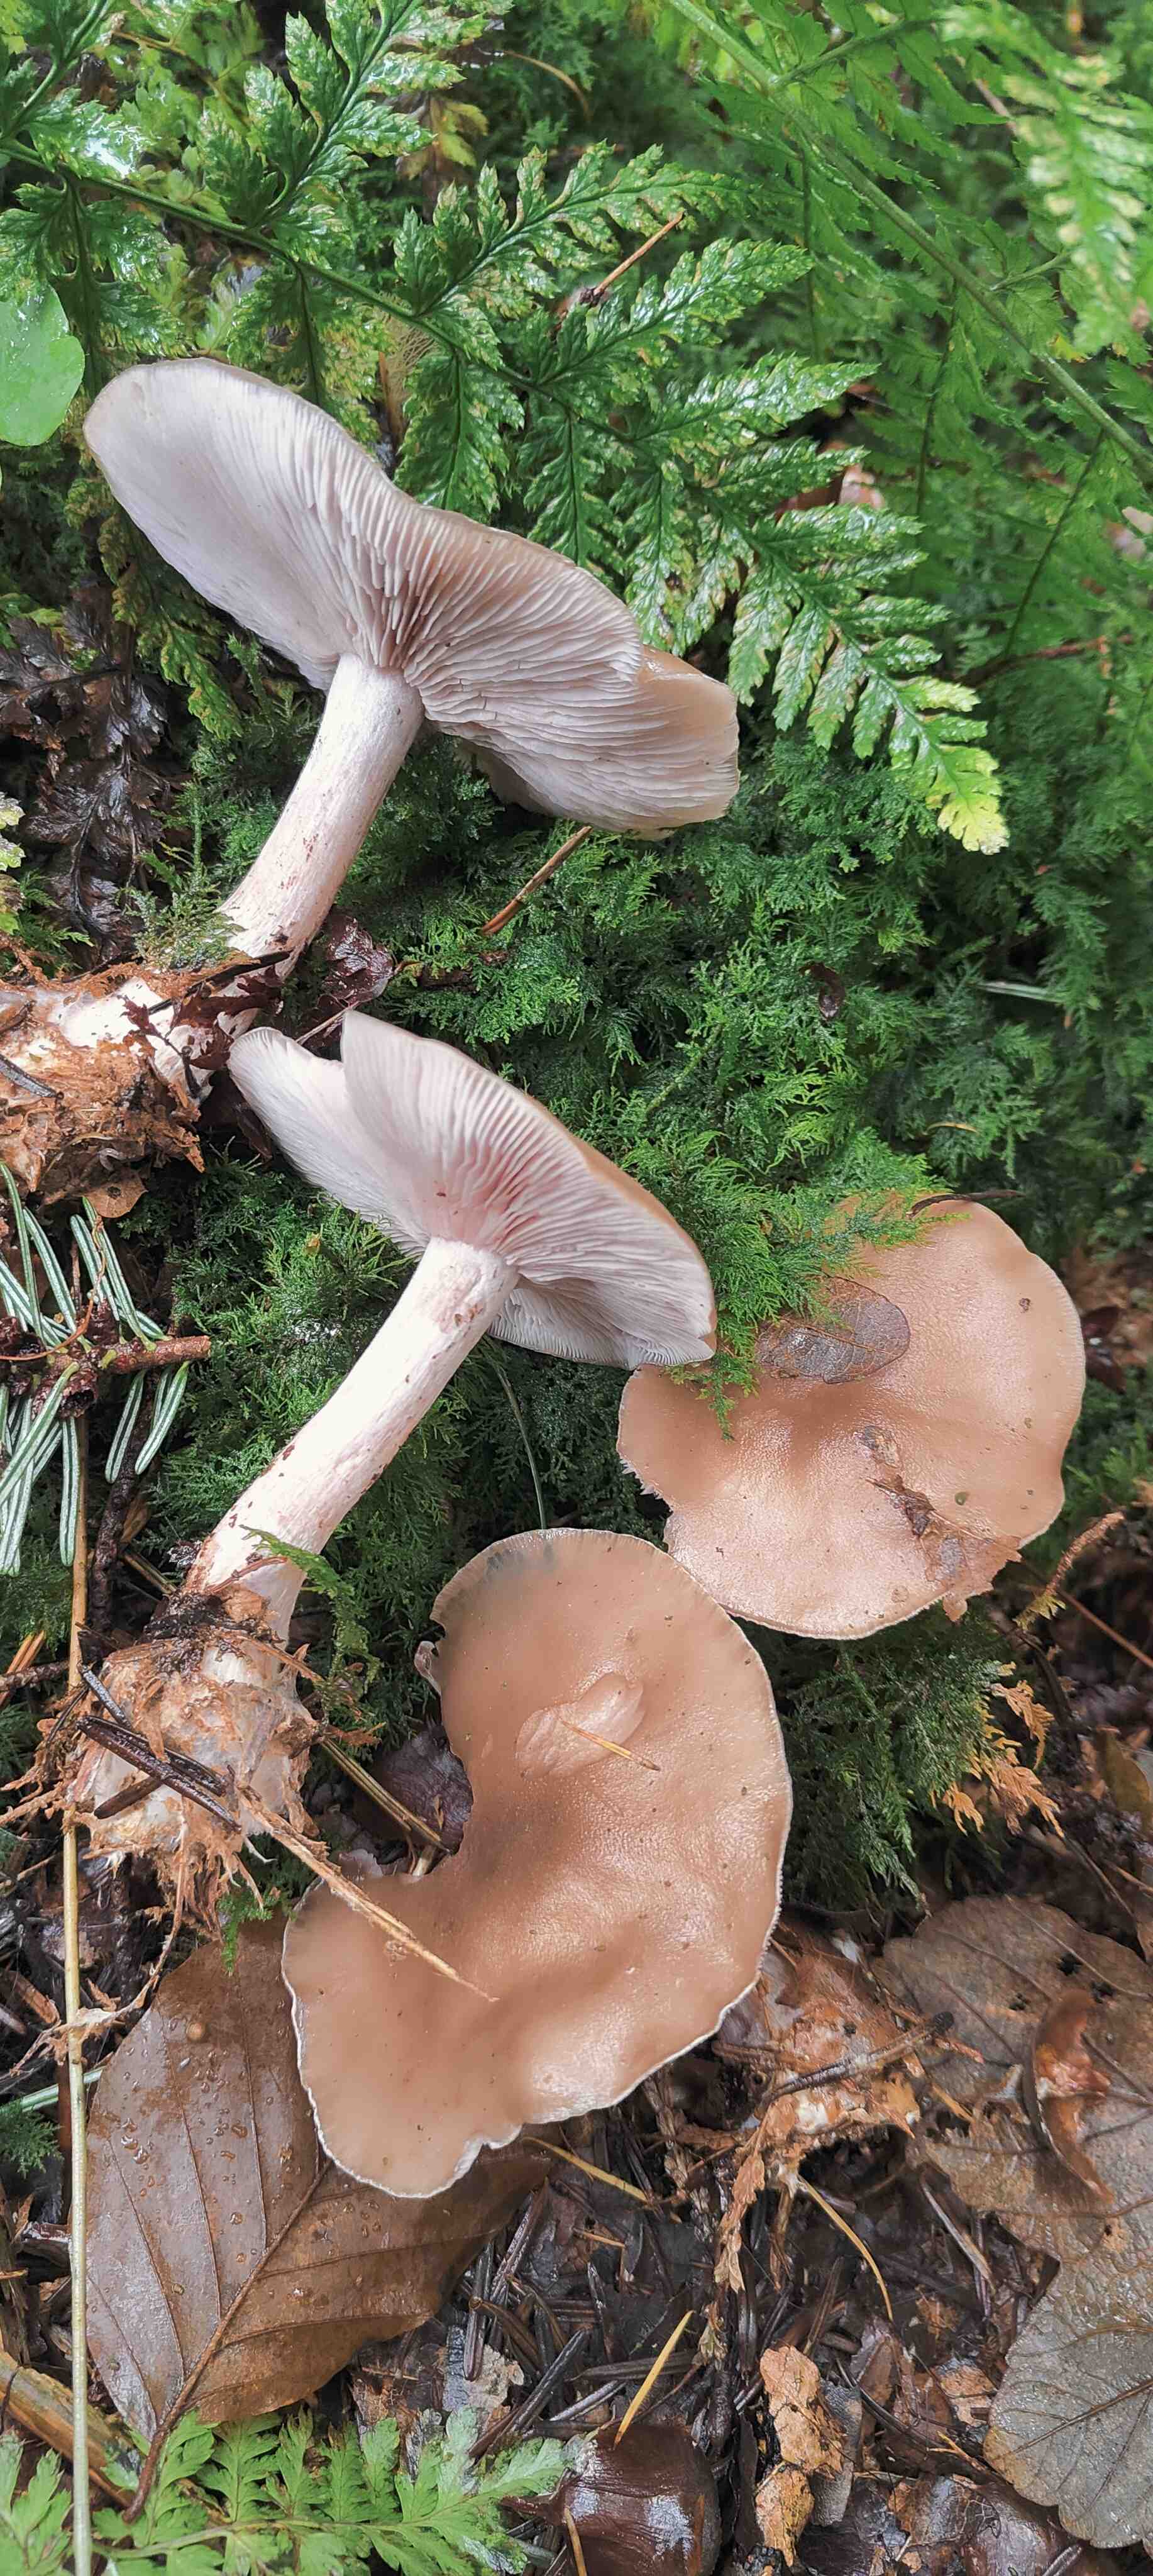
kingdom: Fungi
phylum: Basidiomycota
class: Agaricomycetes
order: Agaricales
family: Tricholomataceae
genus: Lepista
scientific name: Lepista nuda
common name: violet hekseringshat
